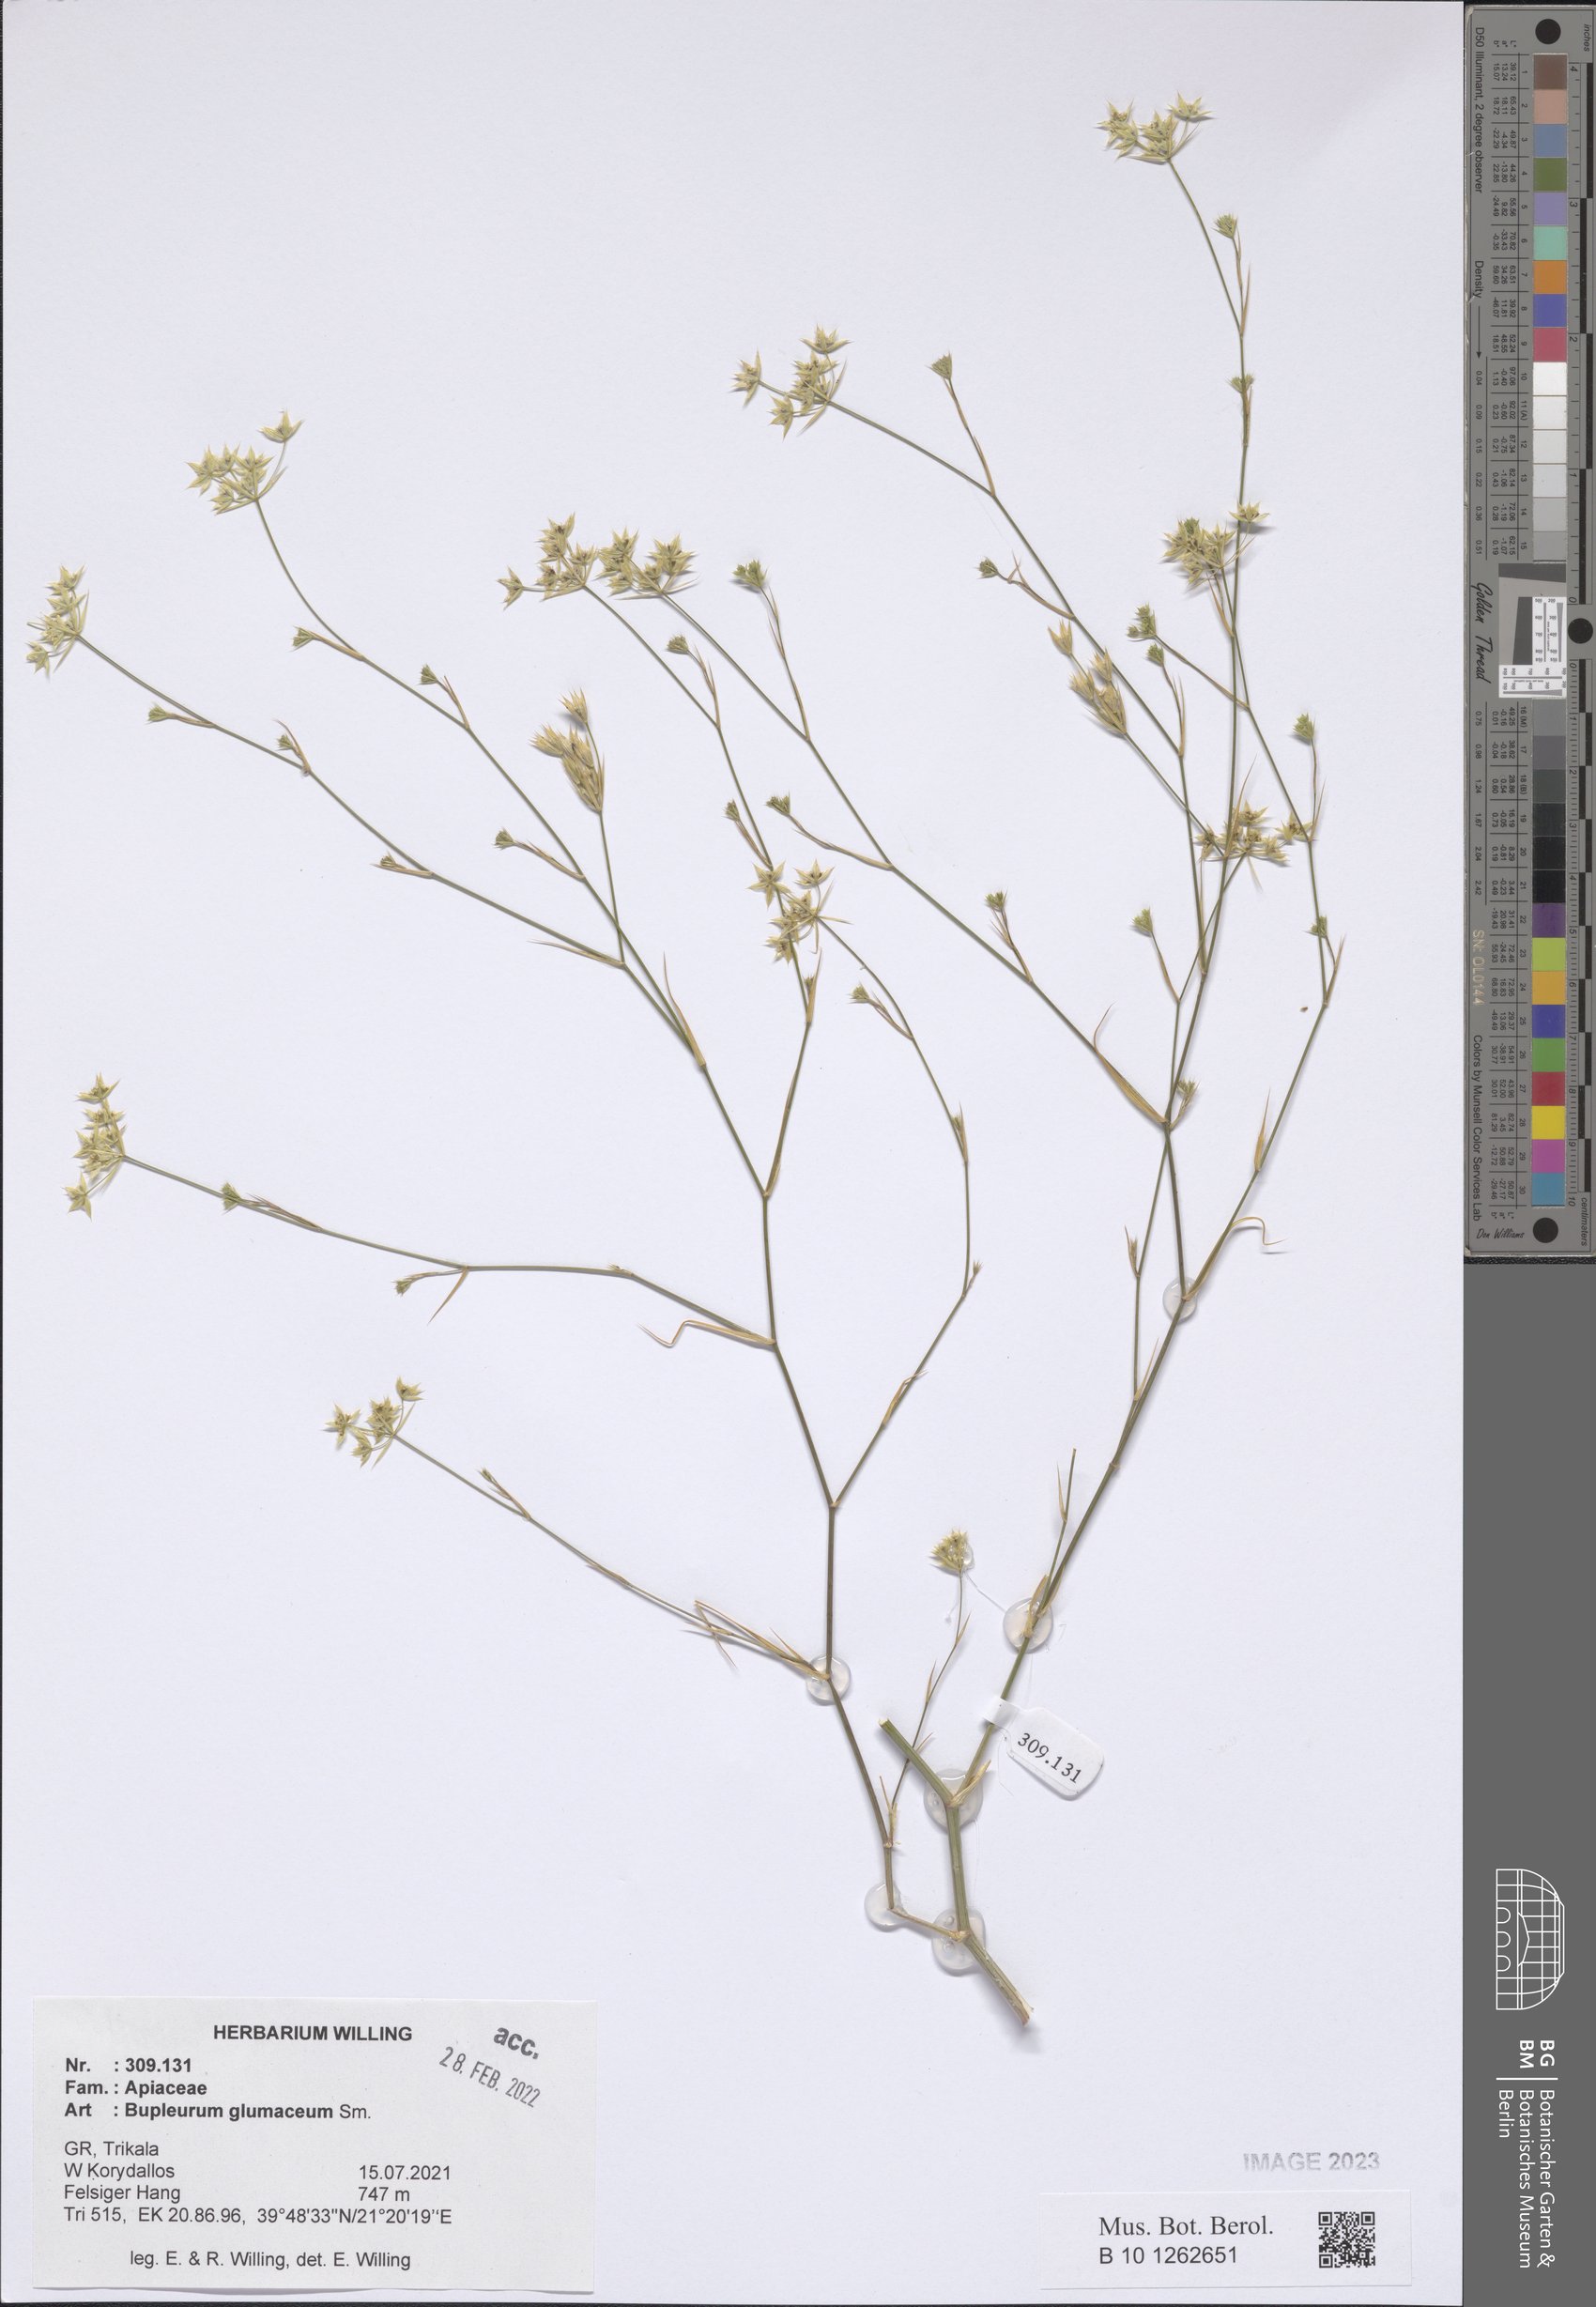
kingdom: Plantae
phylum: Tracheophyta
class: Magnoliopsida
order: Apiales
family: Apiaceae
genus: Bupleurum
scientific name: Bupleurum glumaceum
